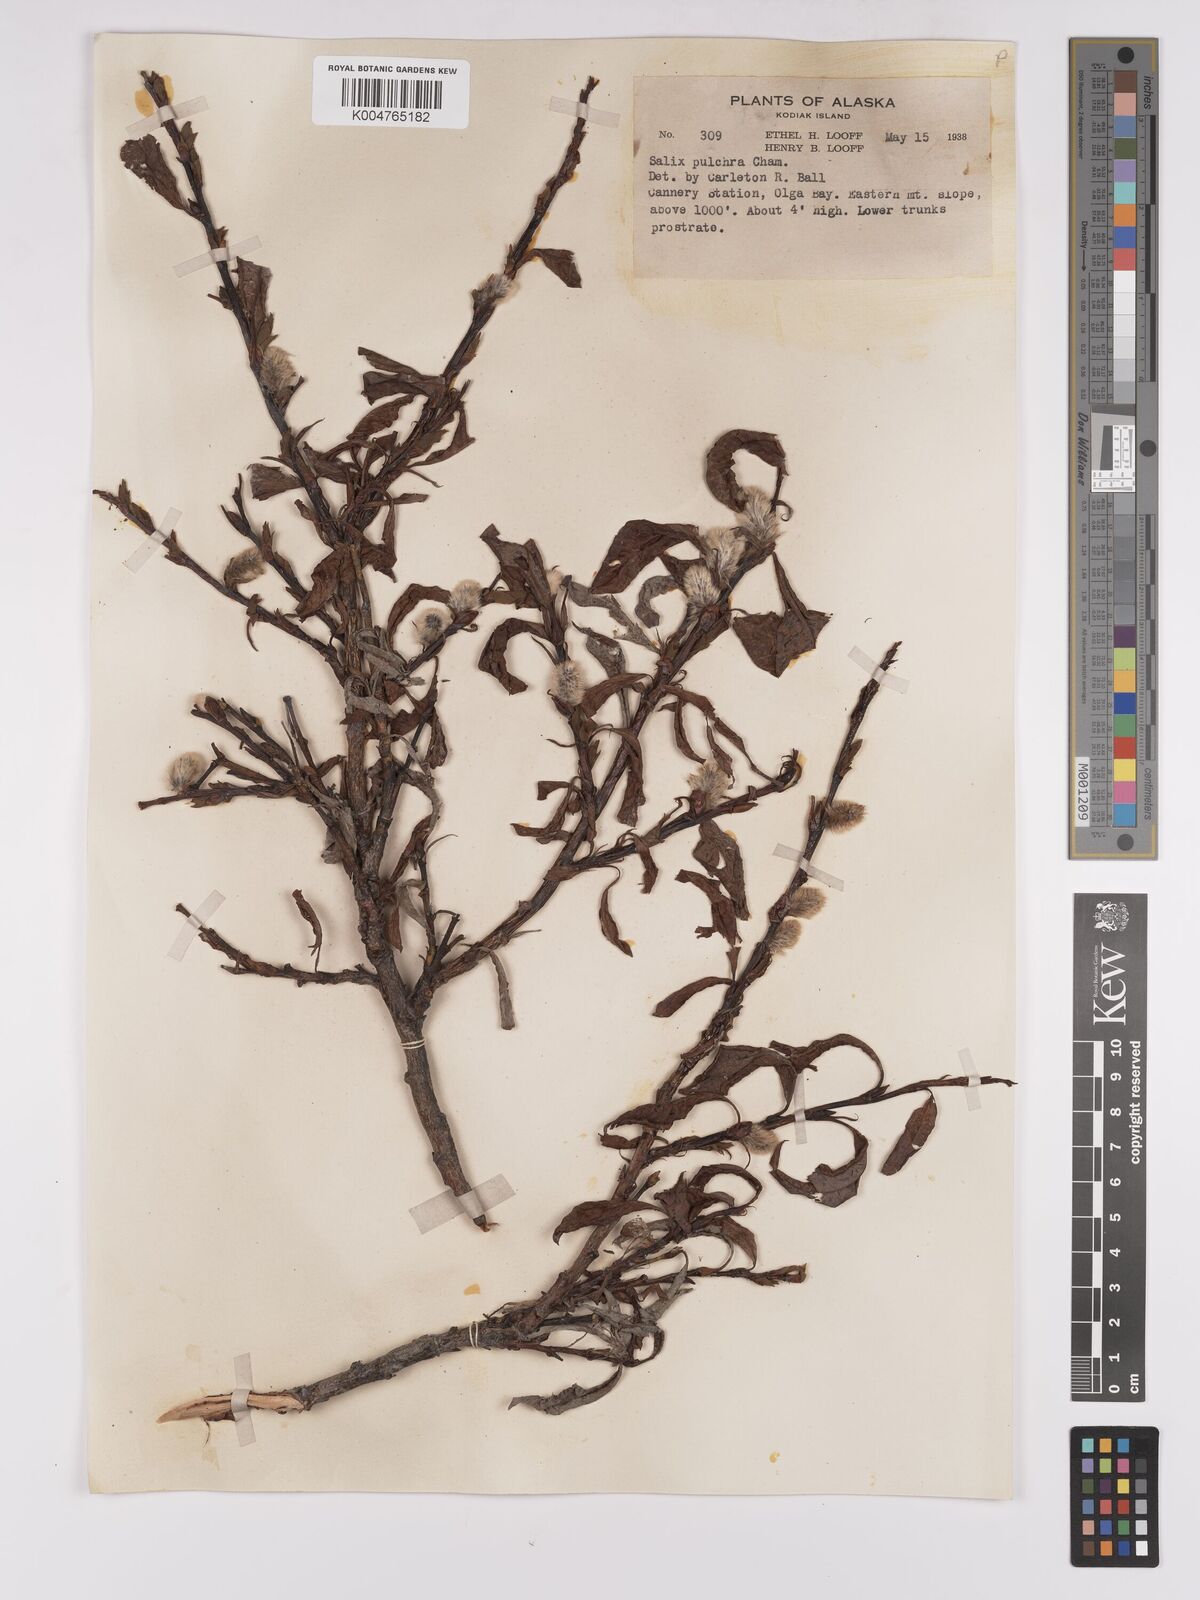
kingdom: Plantae
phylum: Tracheophyta
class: Magnoliopsida
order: Malpighiales
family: Salicaceae
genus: Salix
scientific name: Salix
